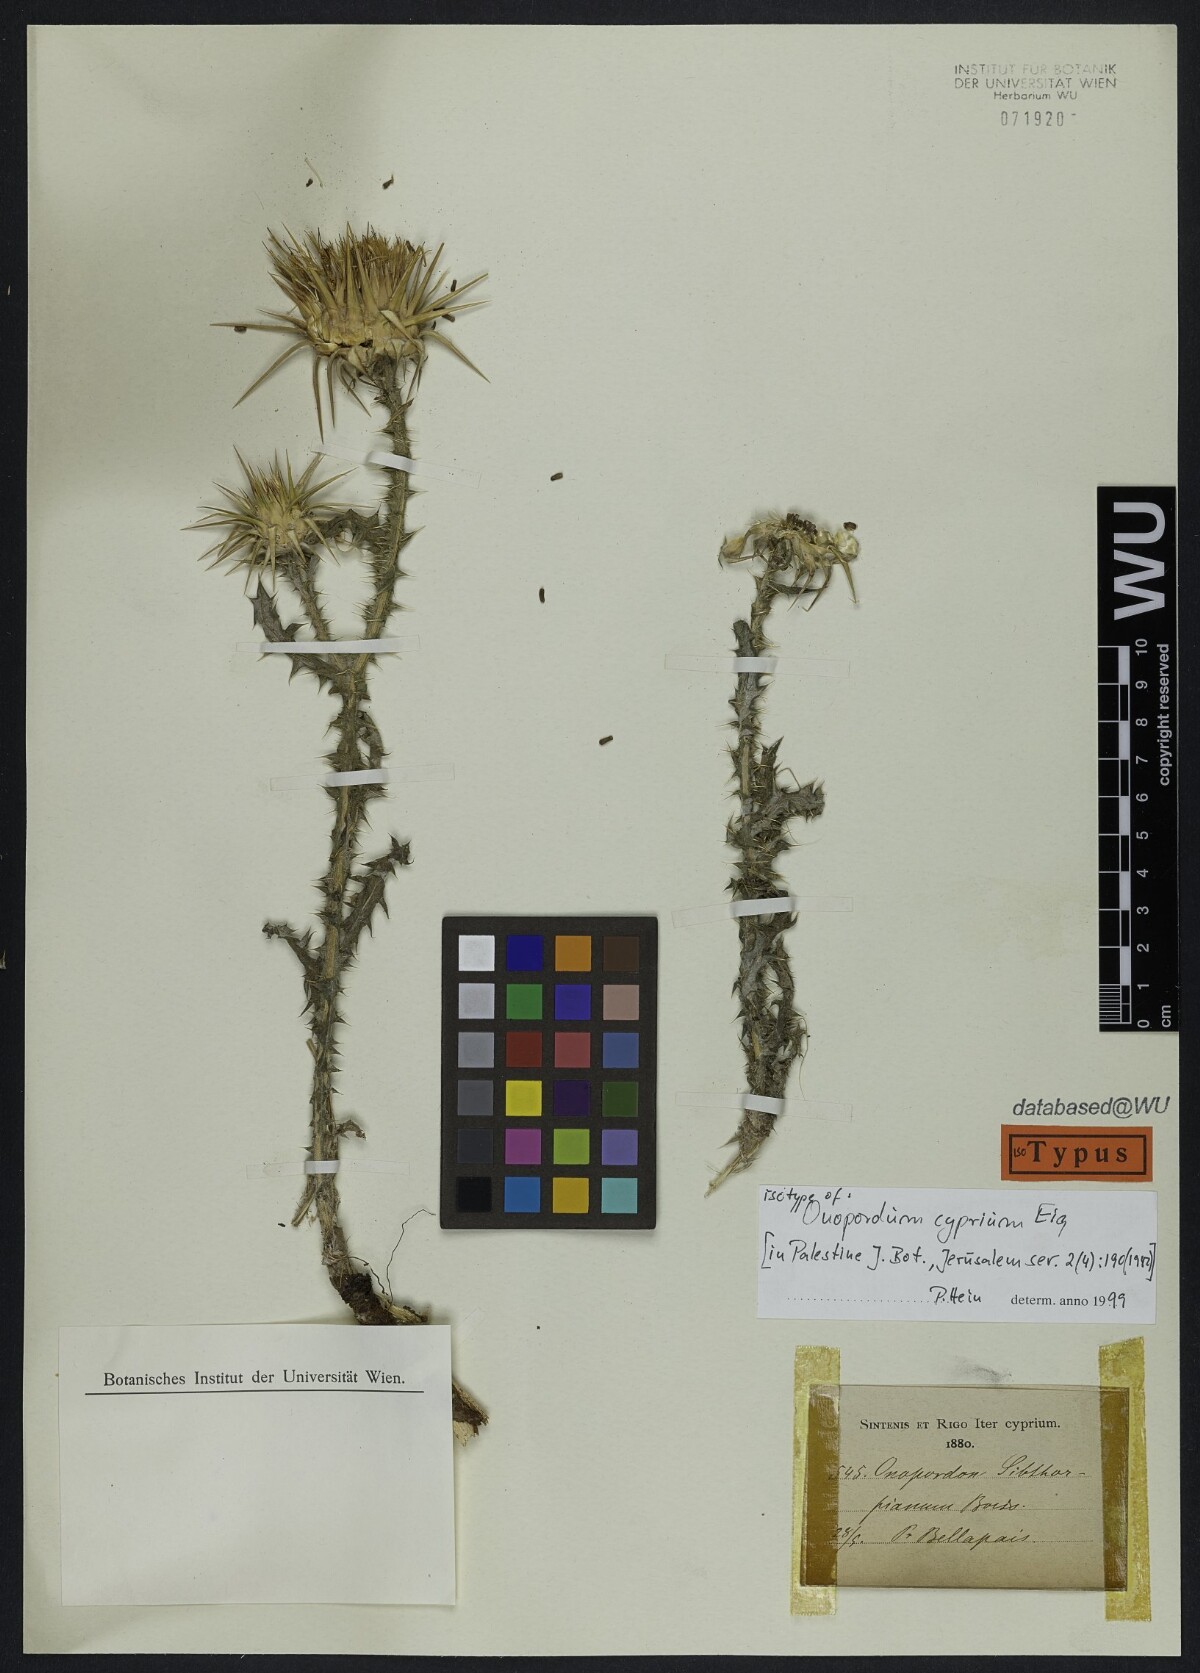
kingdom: Plantae
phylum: Tracheophyta
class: Magnoliopsida
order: Asterales
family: Asteraceae
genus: Onopordum
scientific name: Onopordum cyprium
